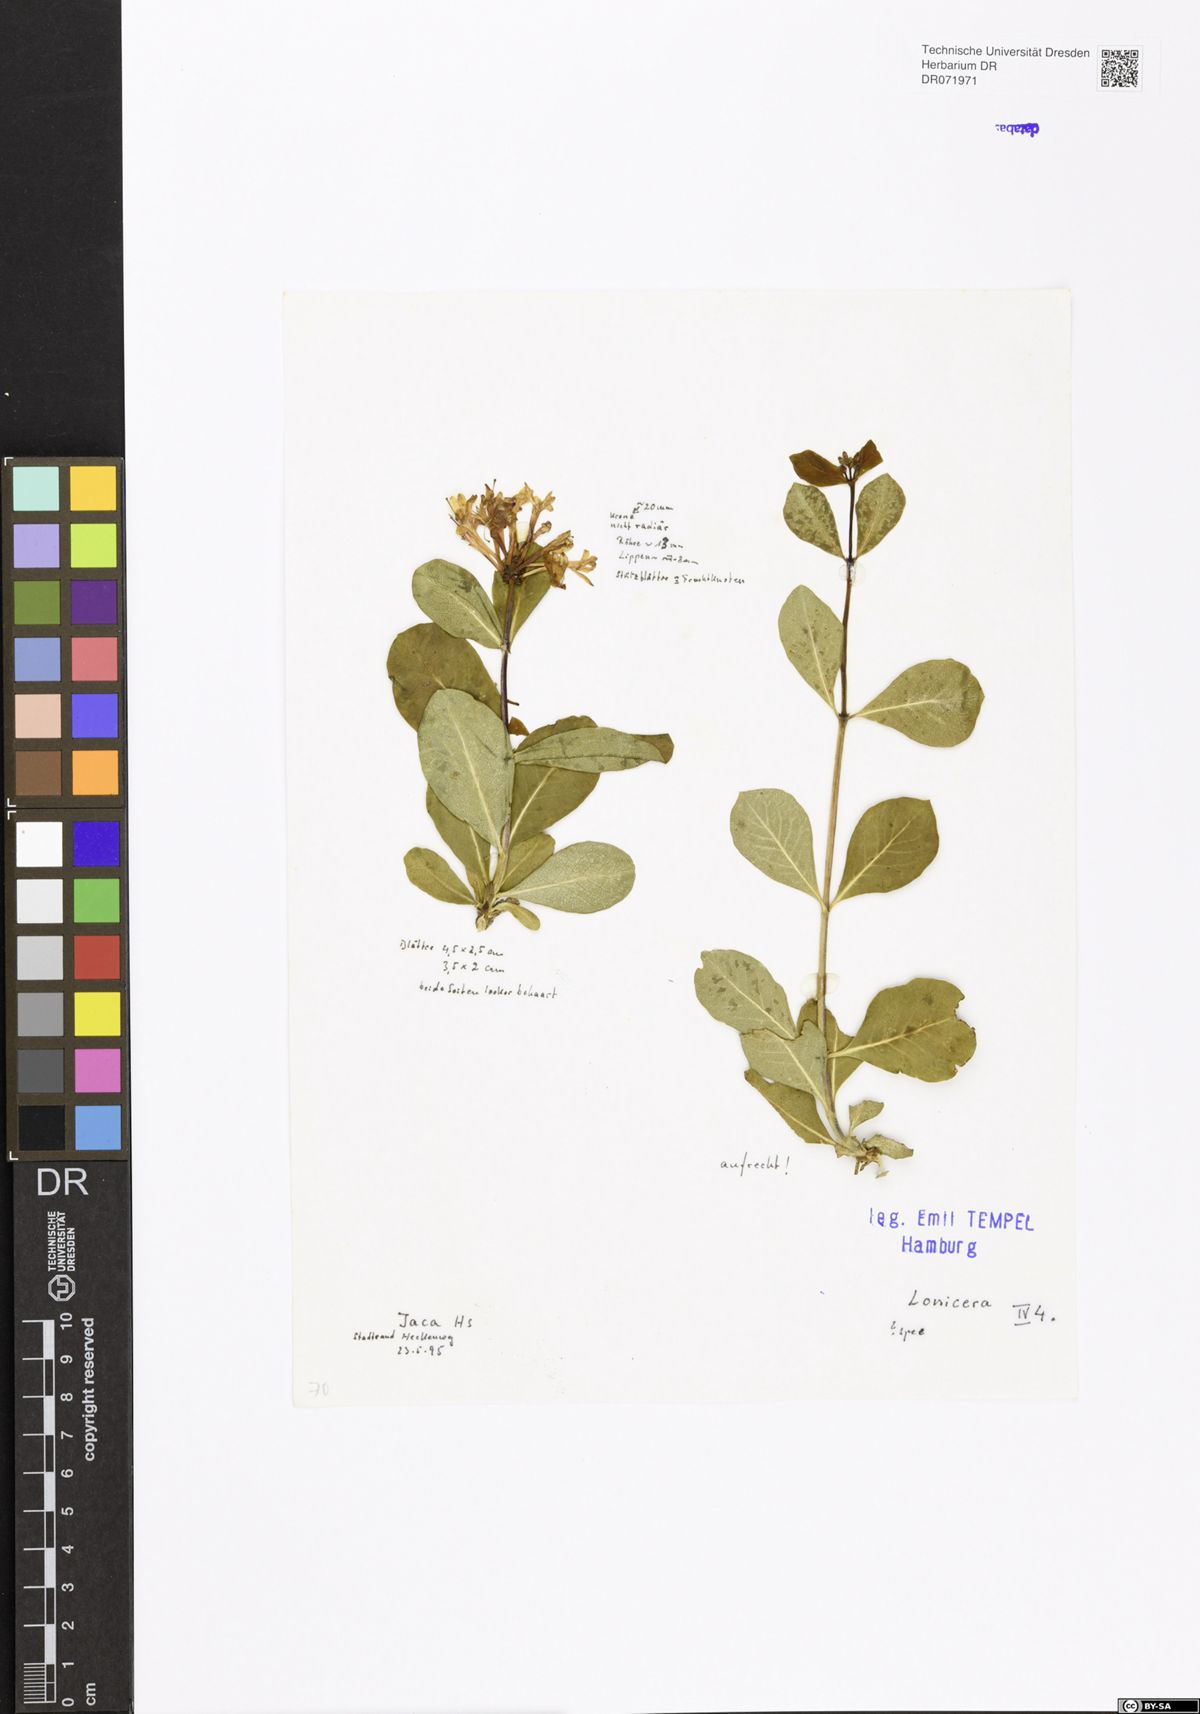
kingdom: Plantae
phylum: Tracheophyta
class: Magnoliopsida
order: Dipsacales
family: Caprifoliaceae
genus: Lonicera
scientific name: Lonicera
